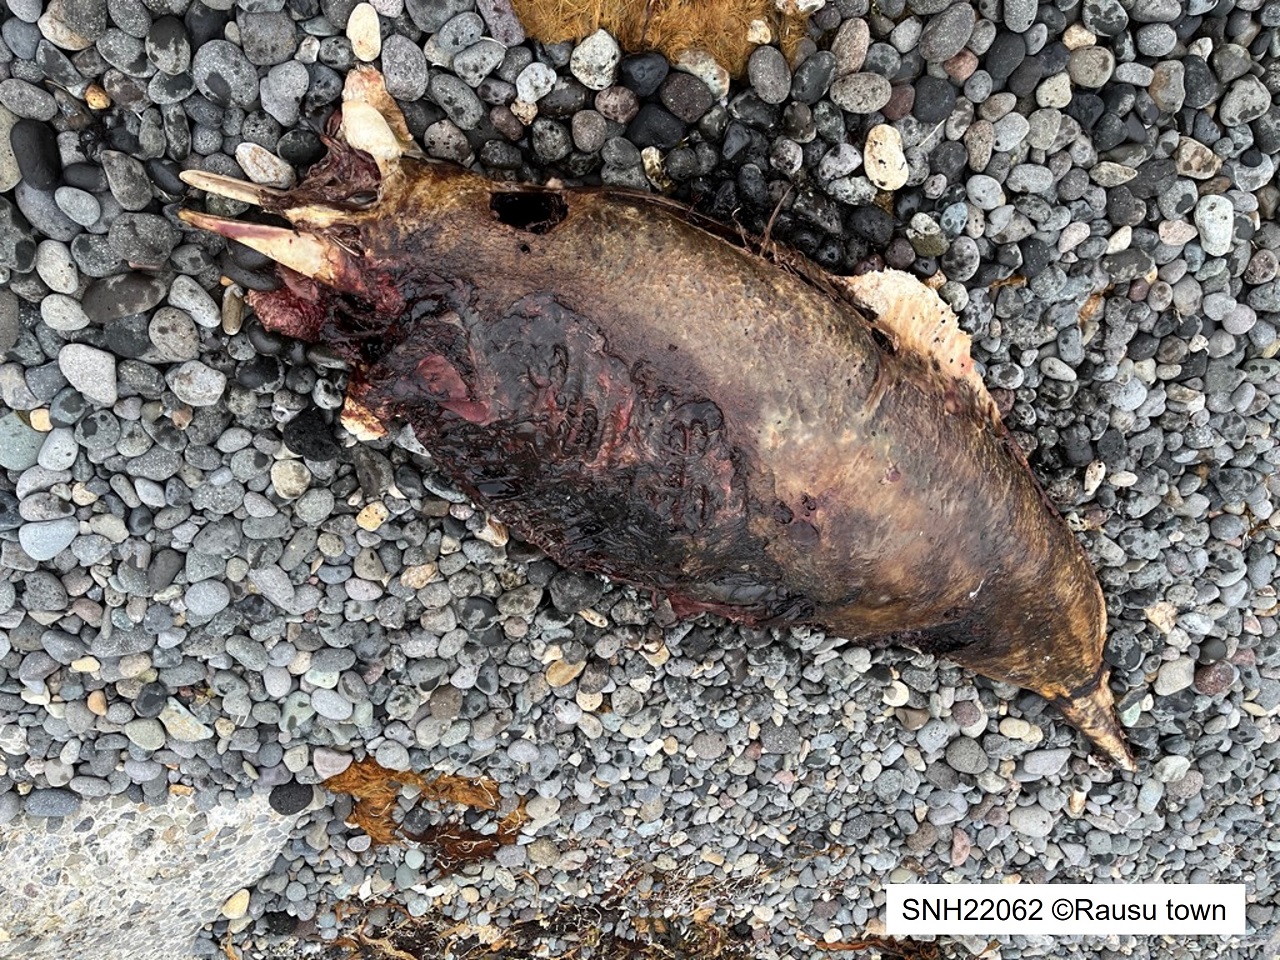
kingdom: Animalia
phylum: Chordata
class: Mammalia
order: Cetacea
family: Phocoenidae
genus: Phocoenoides
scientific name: Phocoenoides dalli
